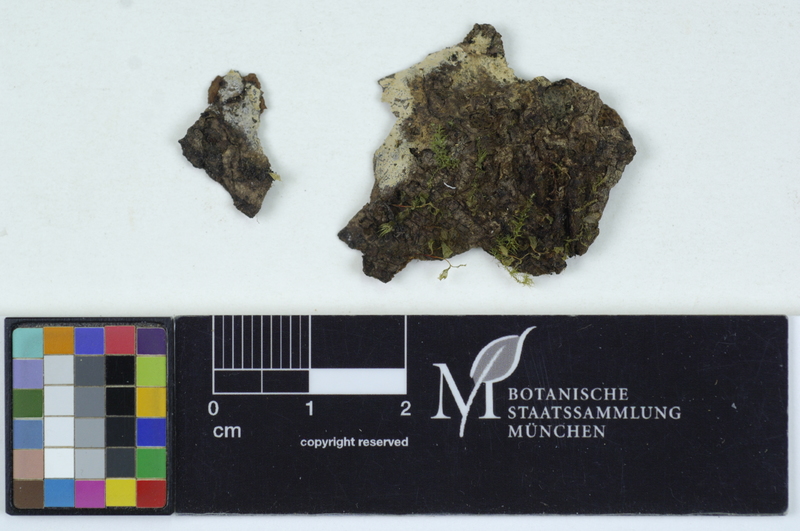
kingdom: Plantae
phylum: Tracheophyta
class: Magnoliopsida
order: Fagales
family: Fagaceae
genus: Fagus
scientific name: Fagus sylvatica
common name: Beech
